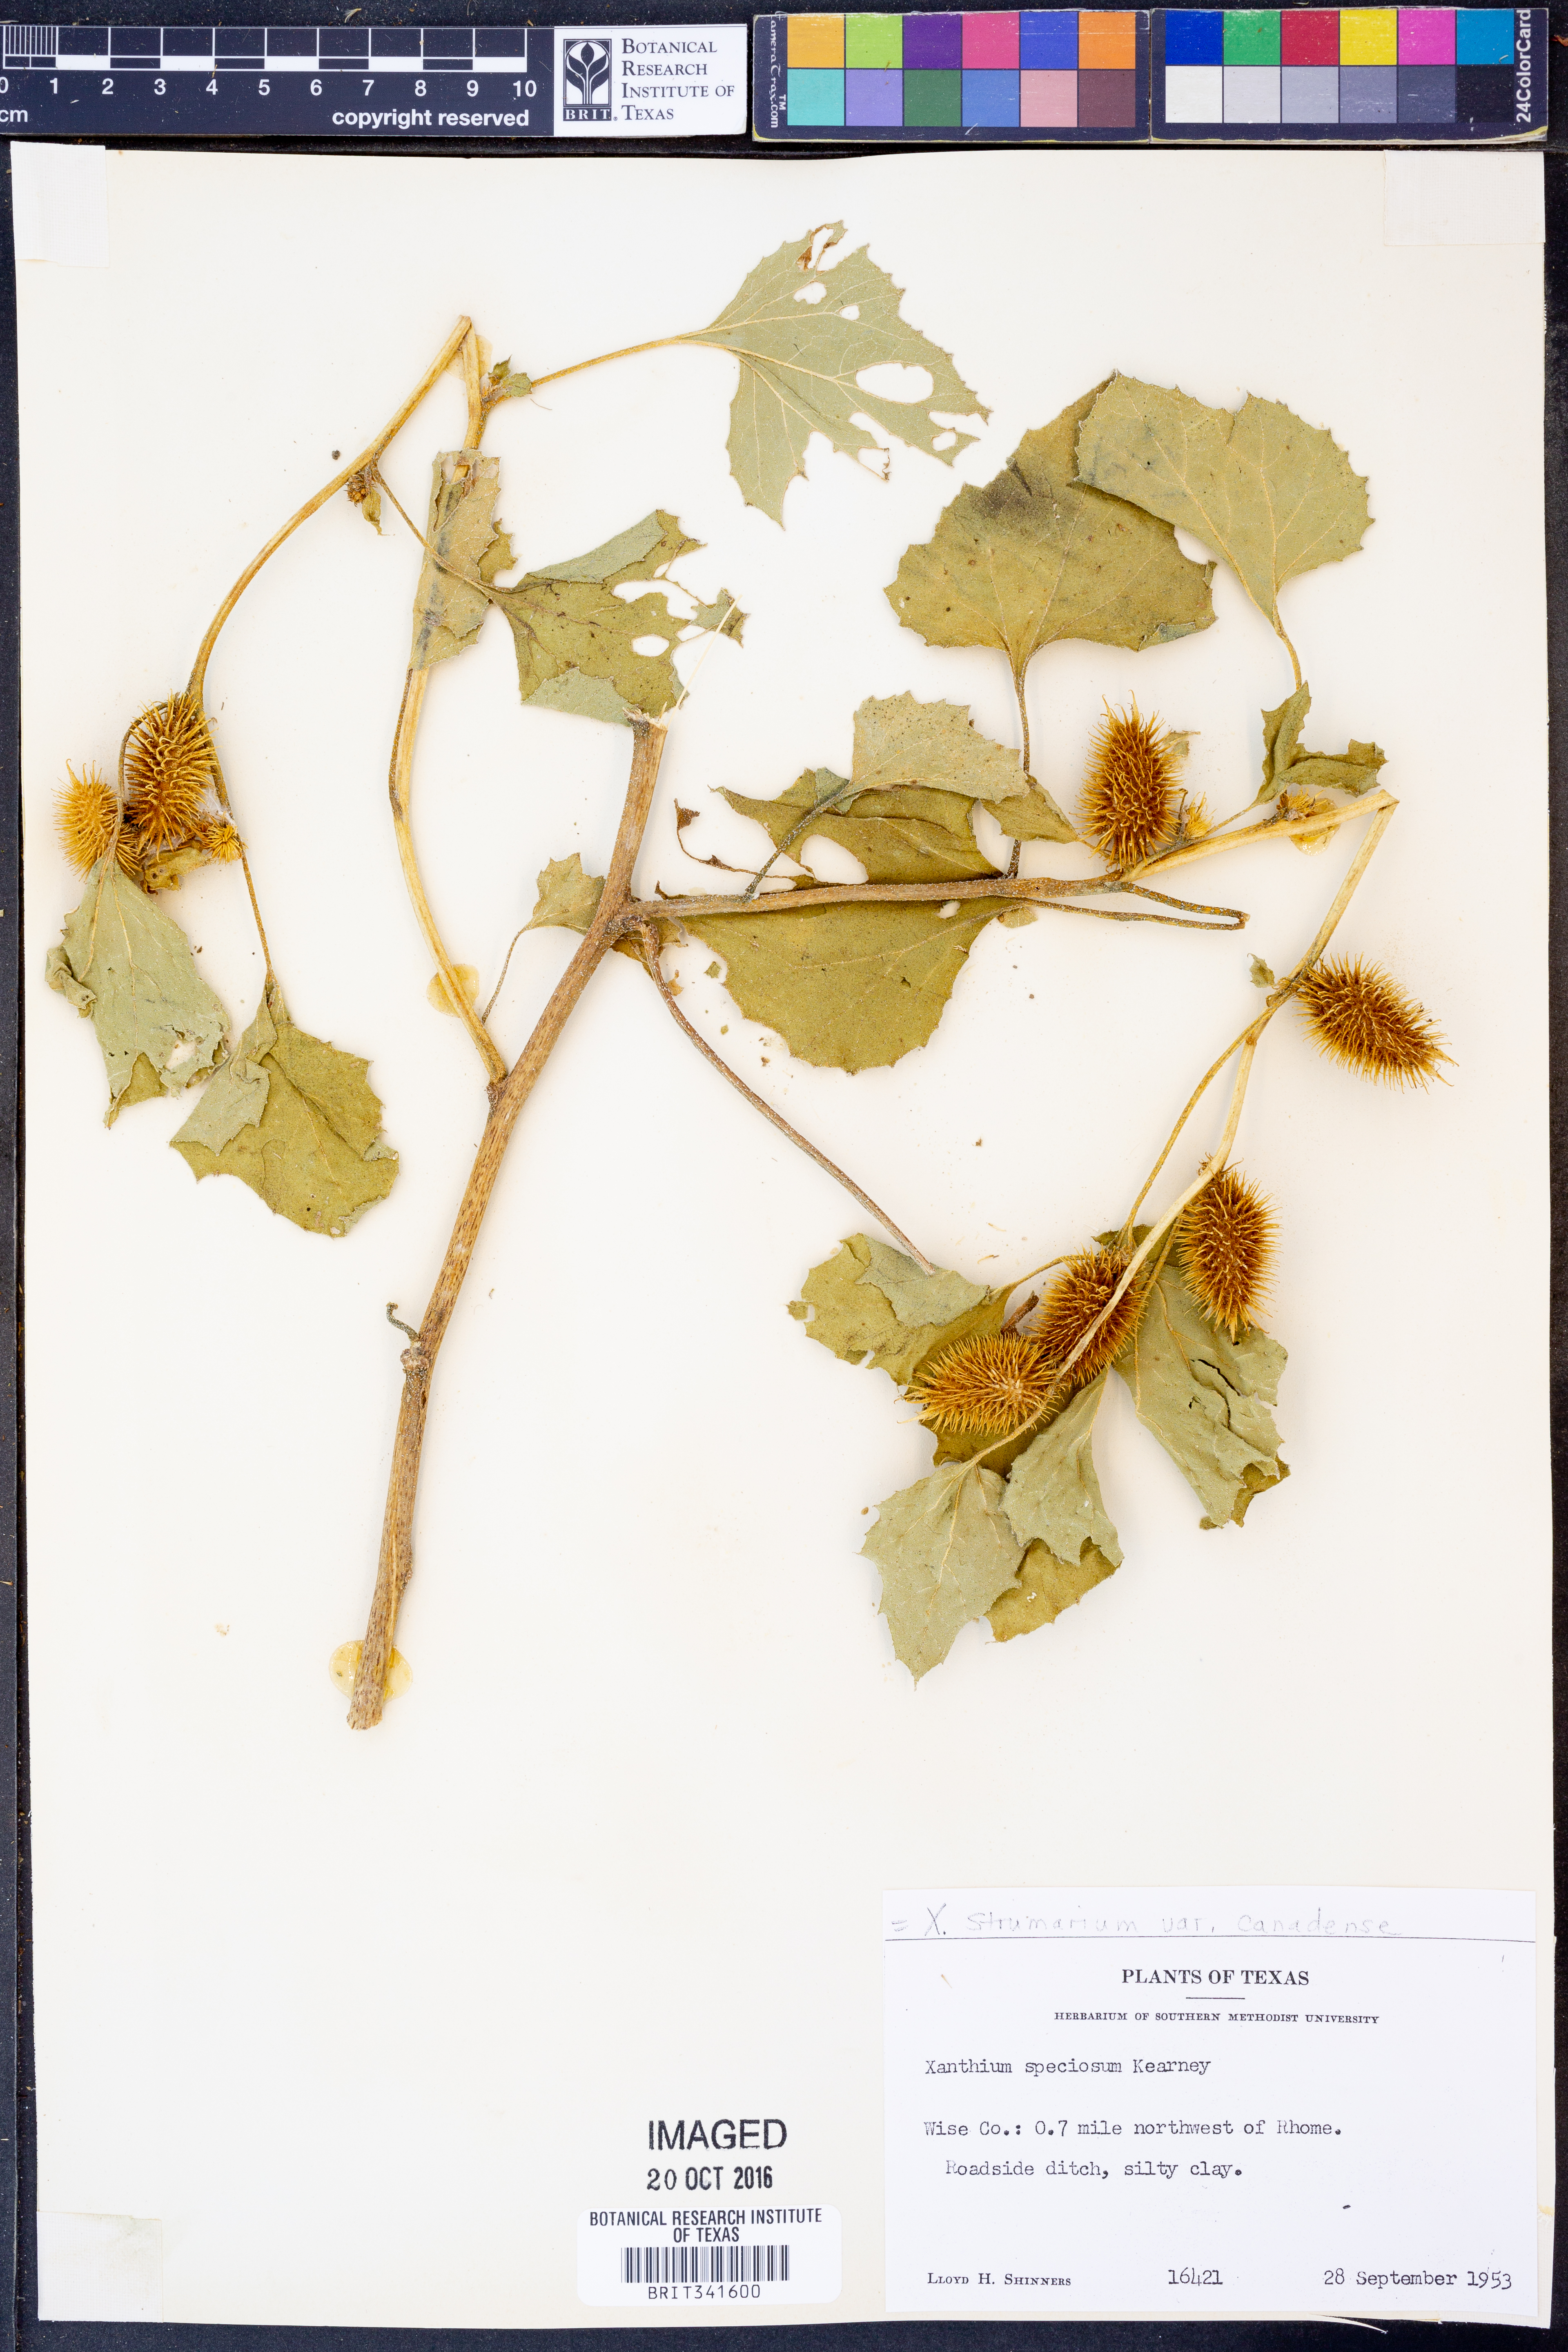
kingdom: Plantae
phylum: Tracheophyta
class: Magnoliopsida
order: Asterales
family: Asteraceae
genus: Xanthium
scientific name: Xanthium orientale
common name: Californian burr
